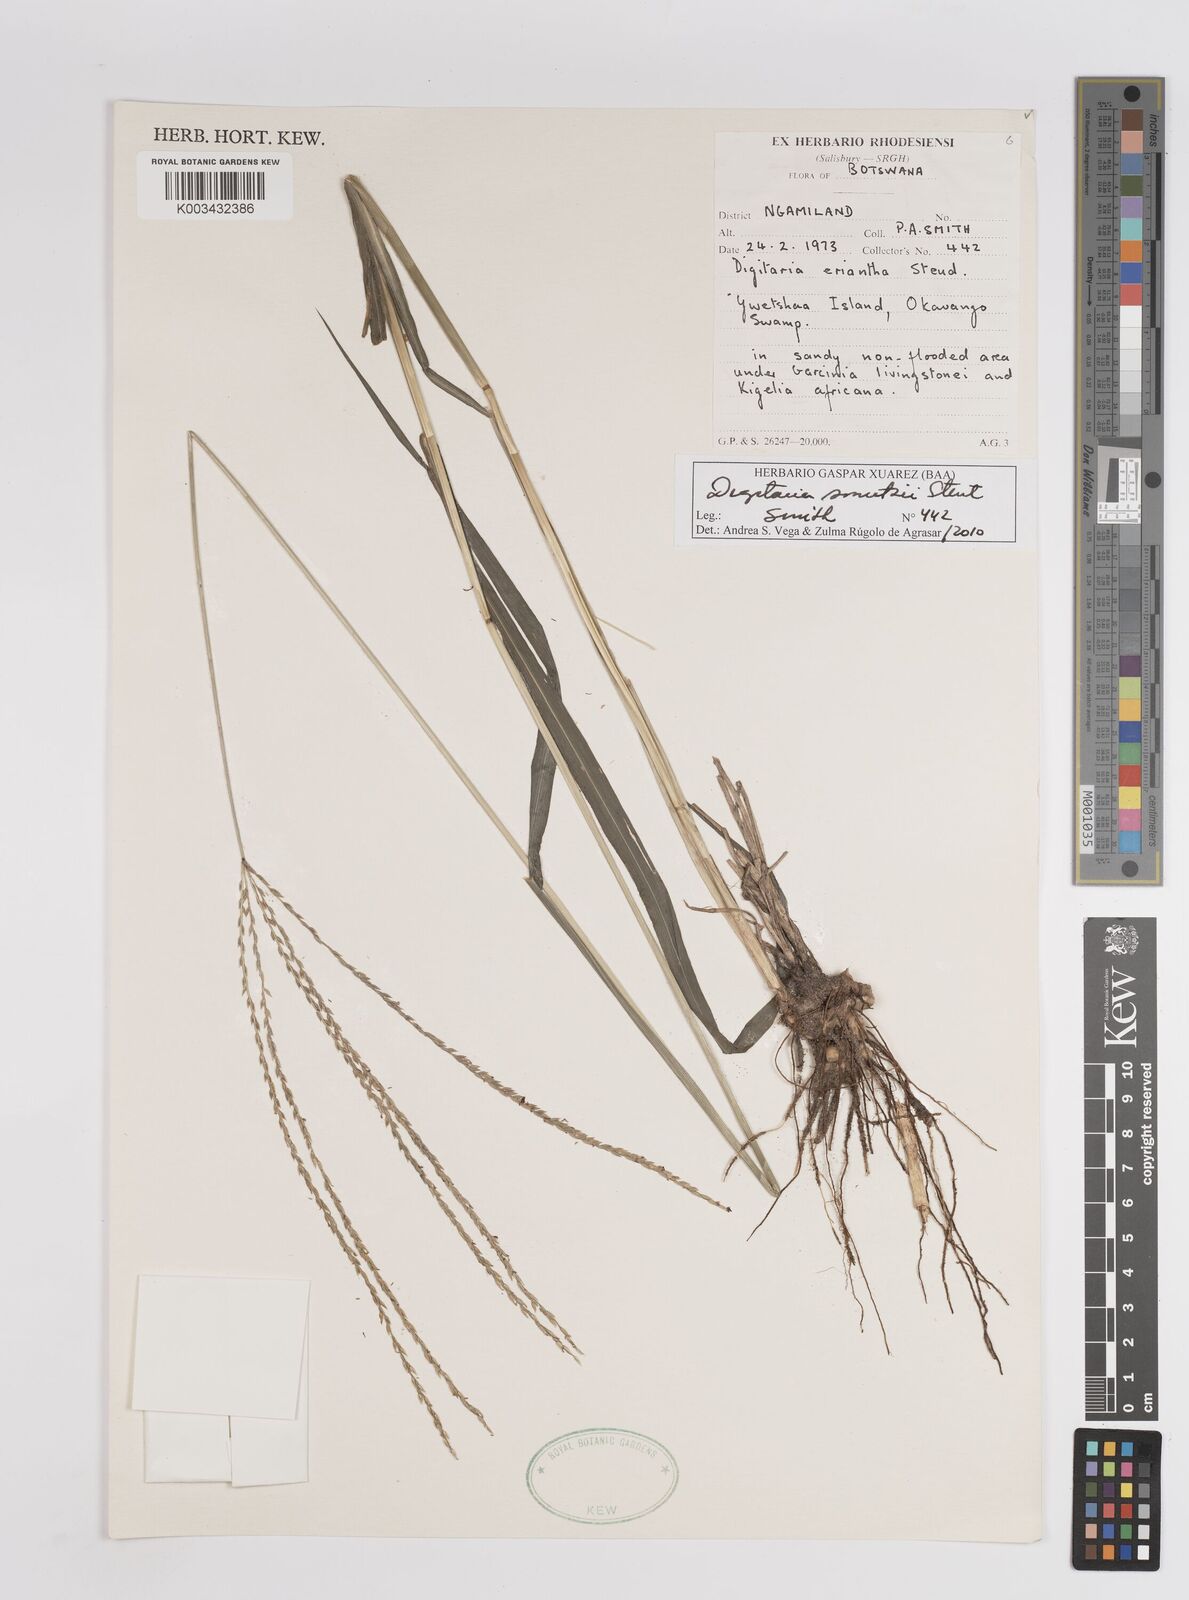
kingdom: Plantae
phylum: Tracheophyta
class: Liliopsida
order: Poales
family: Poaceae
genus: Digitaria
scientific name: Digitaria eriantha
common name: Digitgrass
